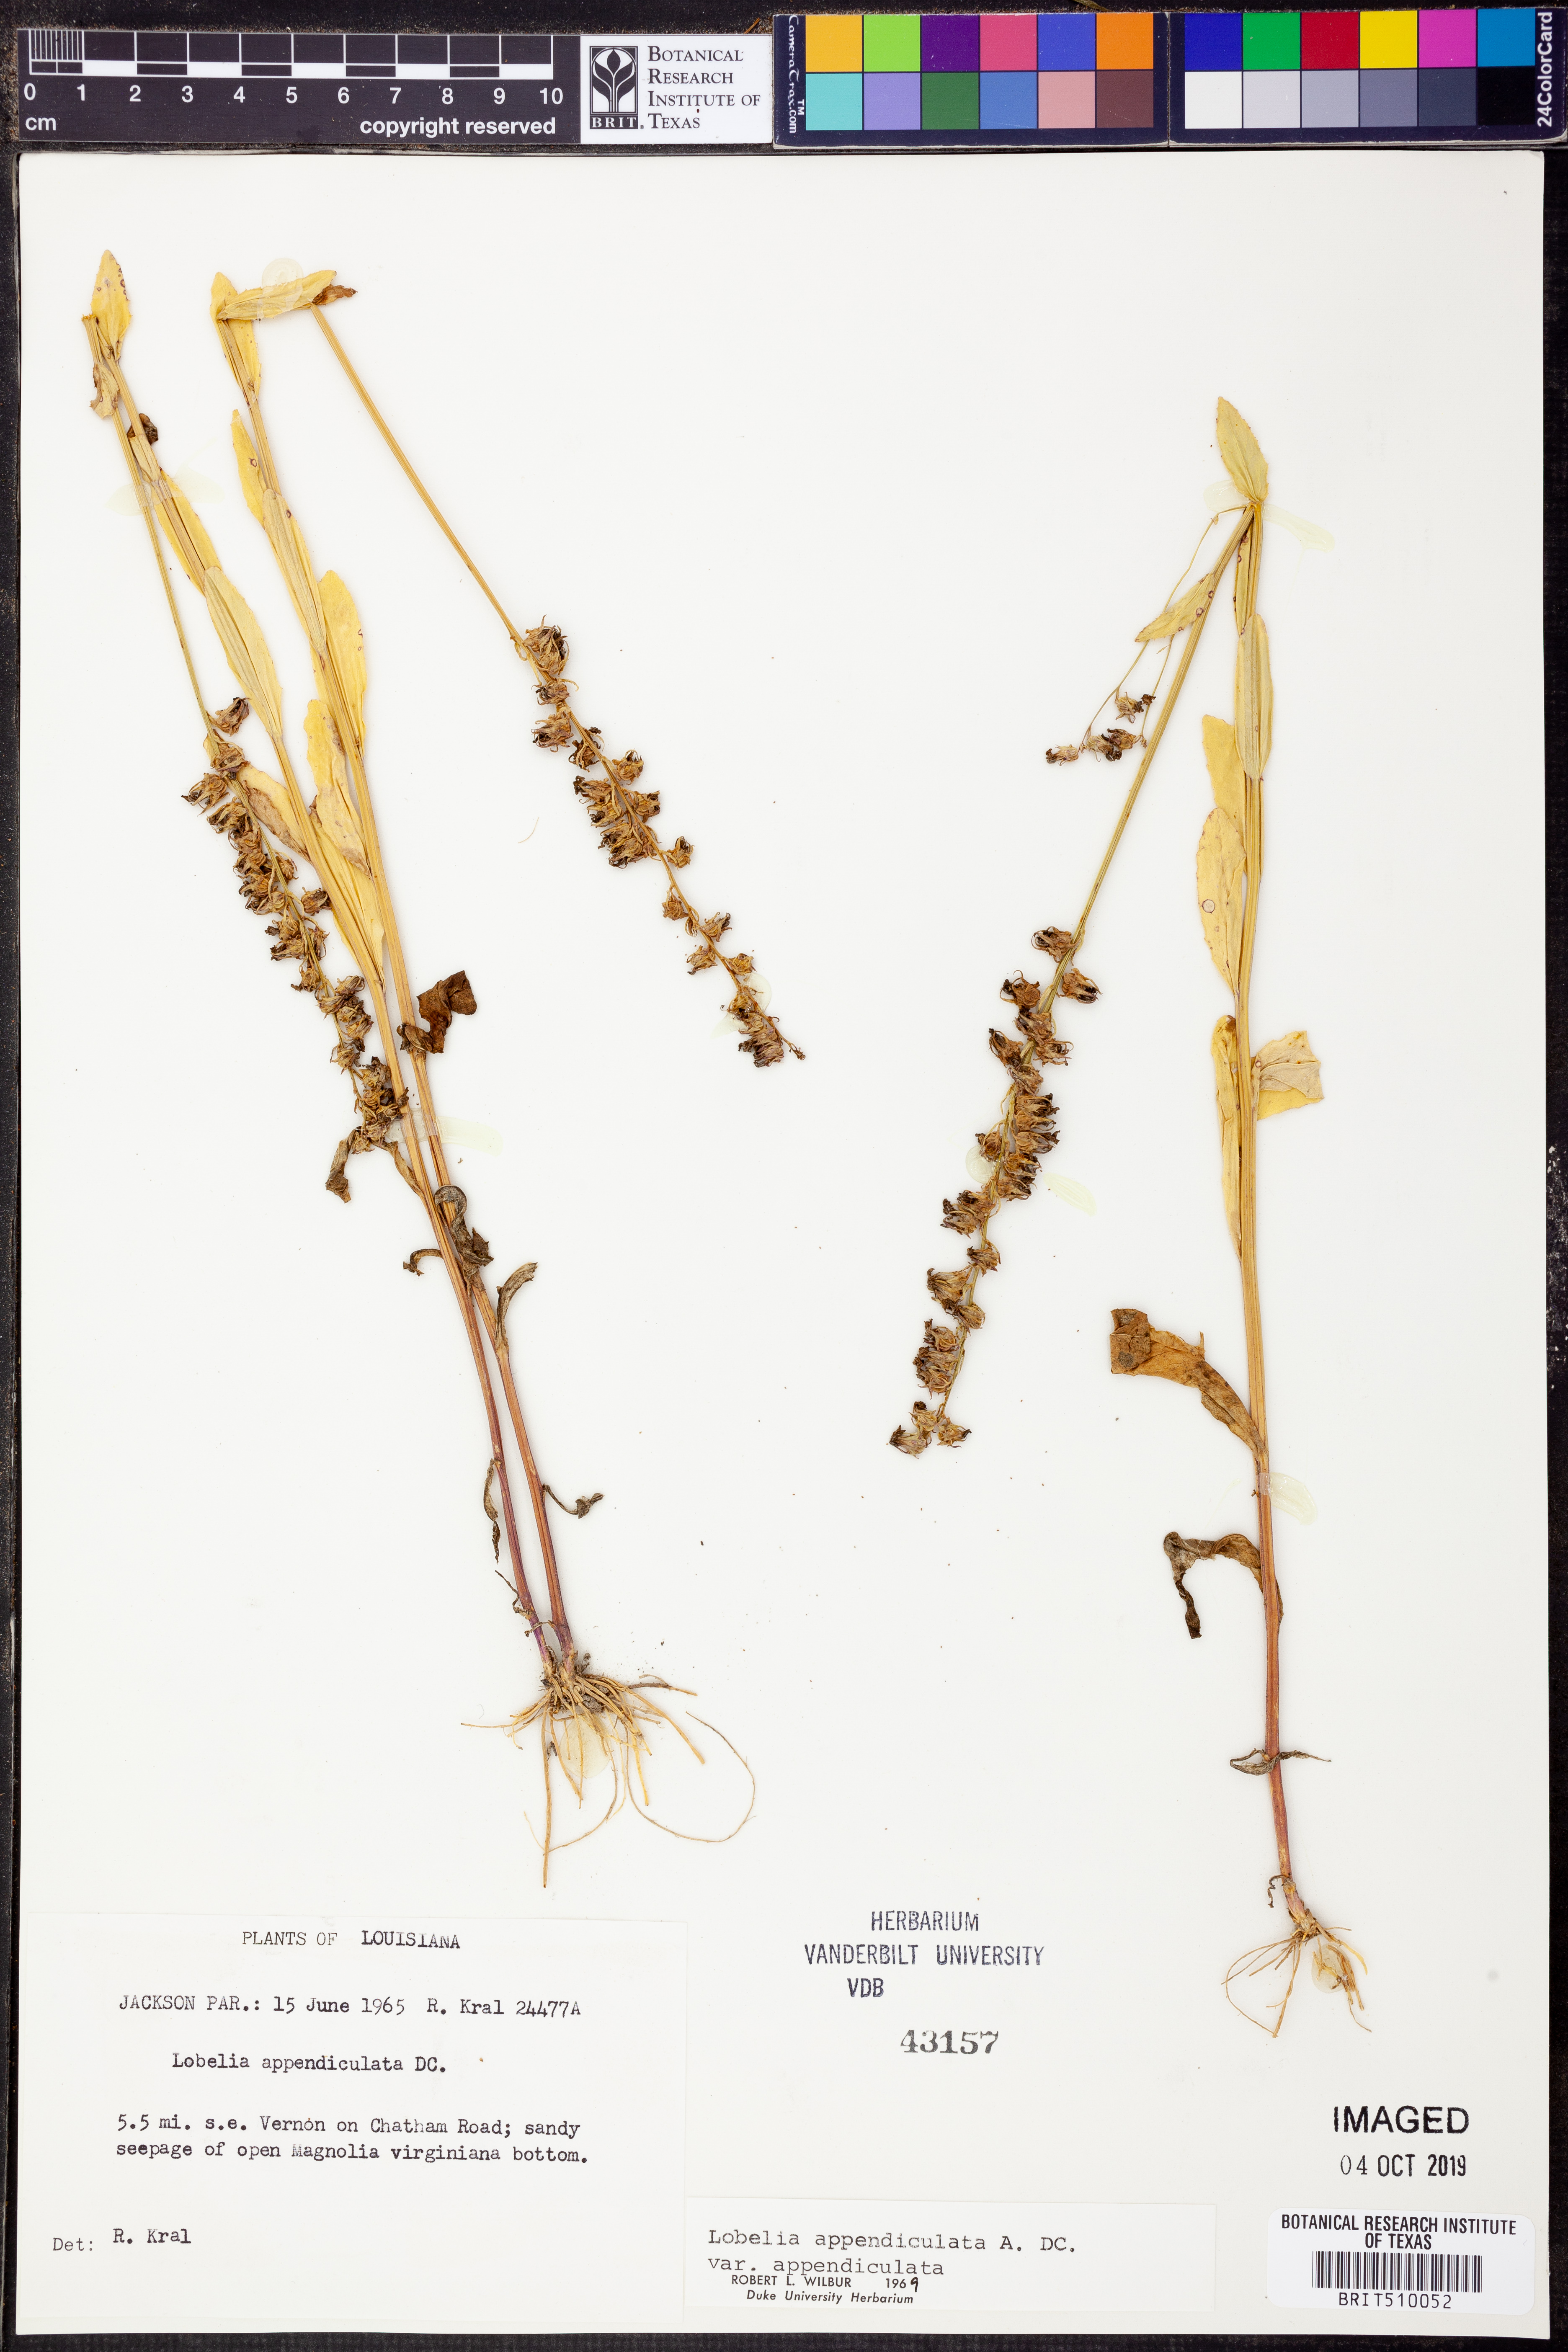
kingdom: Plantae
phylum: Tracheophyta
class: Magnoliopsida
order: Asterales
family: Campanulaceae
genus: Lobelia
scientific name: Lobelia appendiculata
